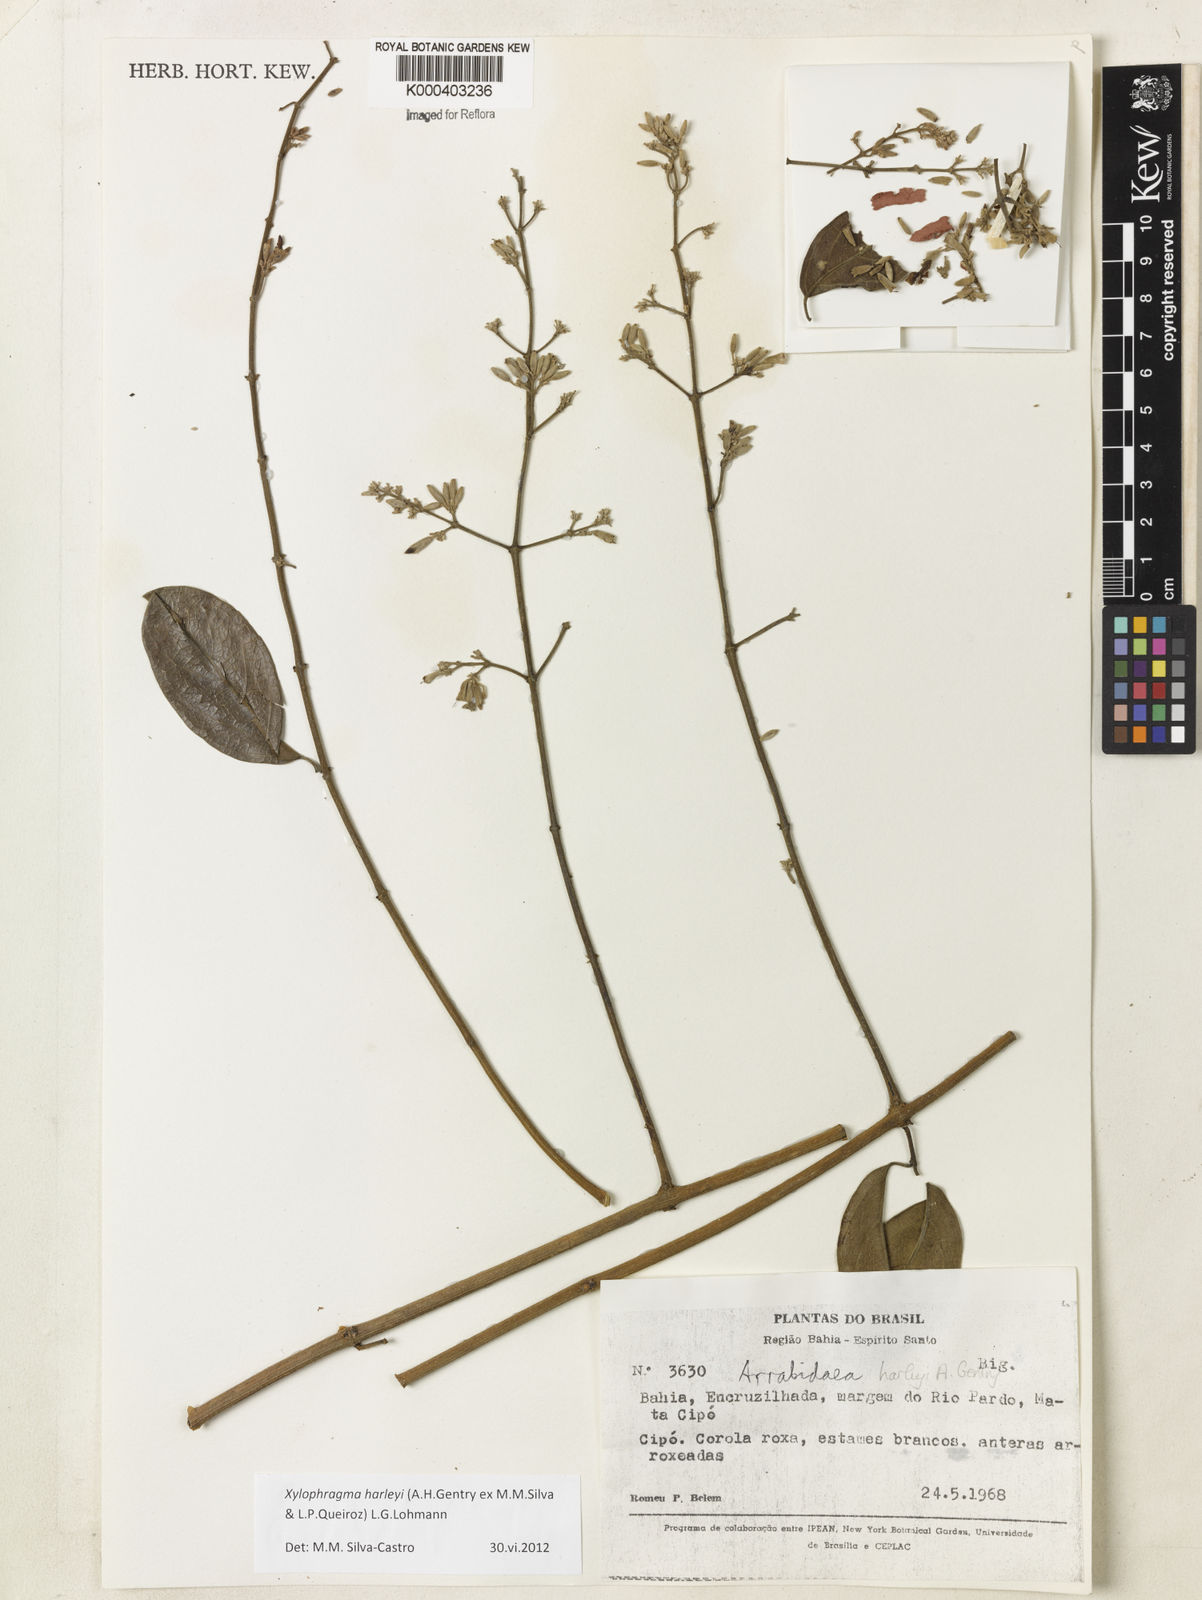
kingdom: Plantae
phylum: Tracheophyta
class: Magnoliopsida
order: Lamiales
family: Bignoniaceae
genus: Xylophragma
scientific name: Xylophragma harleyi
